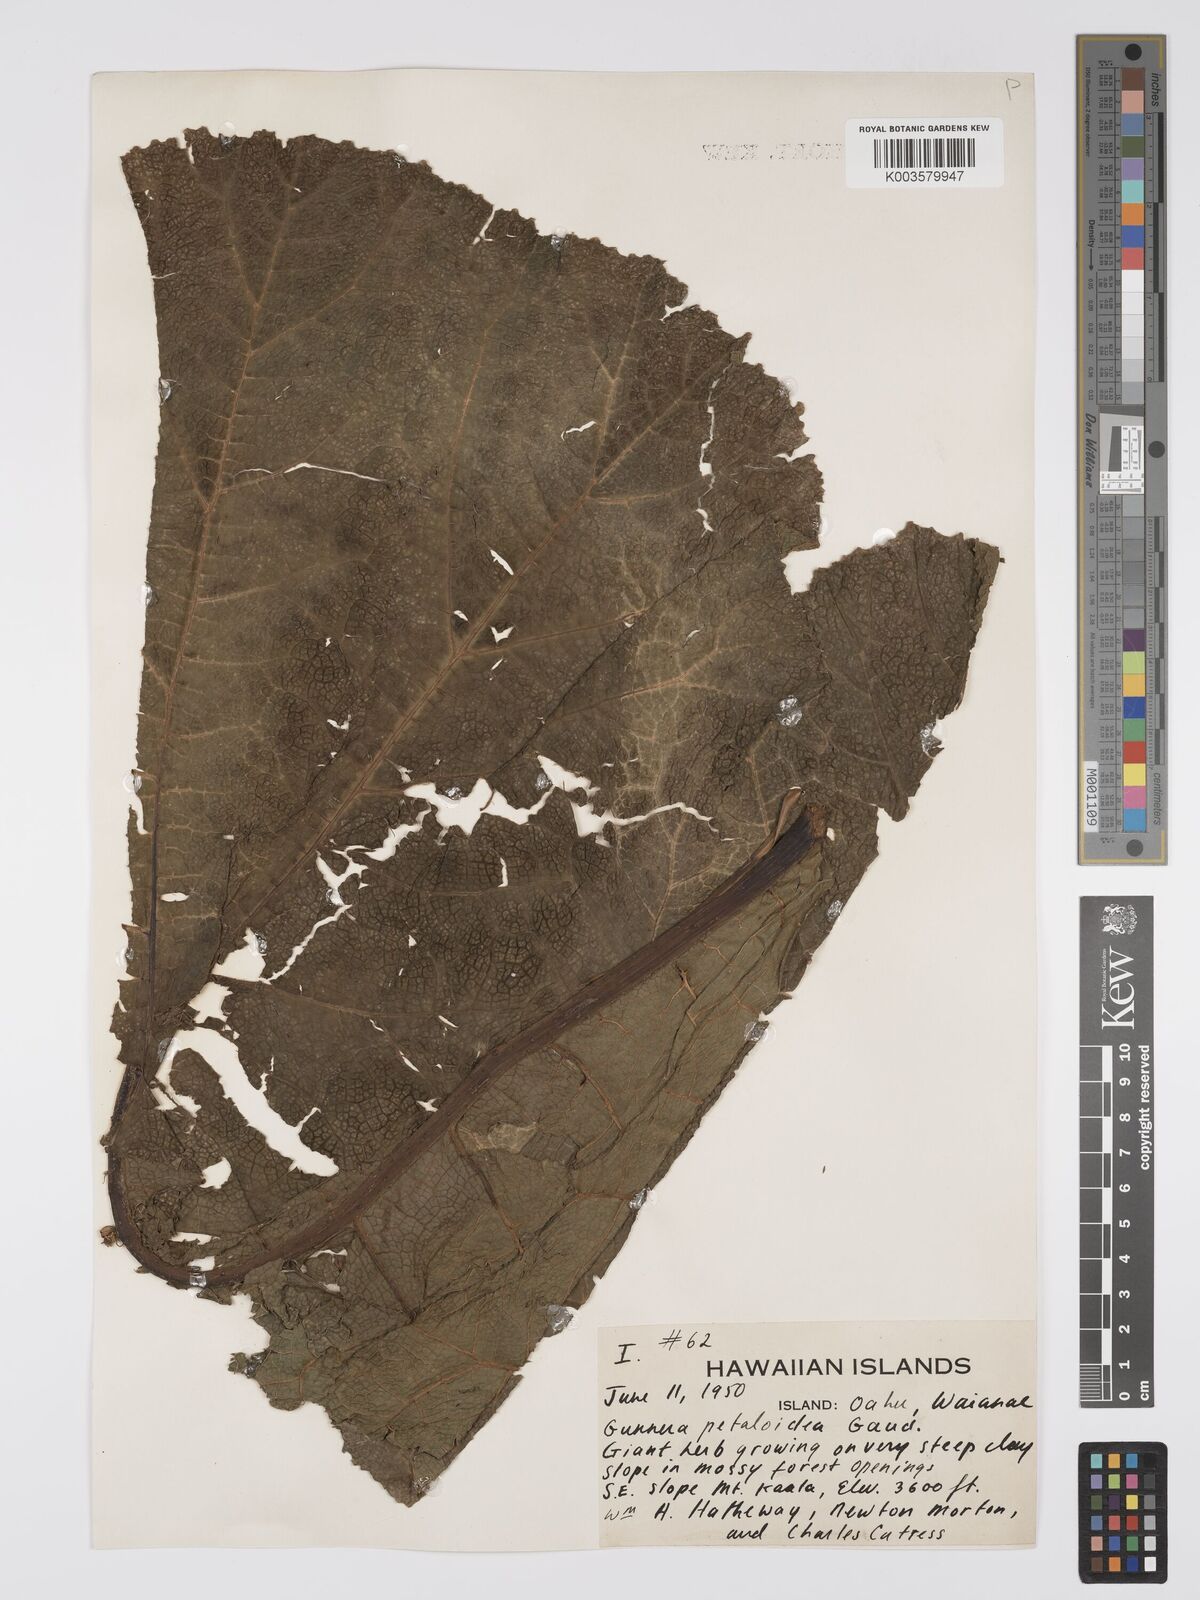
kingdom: Plantae
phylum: Tracheophyta
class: Magnoliopsida
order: Gunnerales
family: Gunneraceae
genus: Gunnera
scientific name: Gunnera petaloidea
